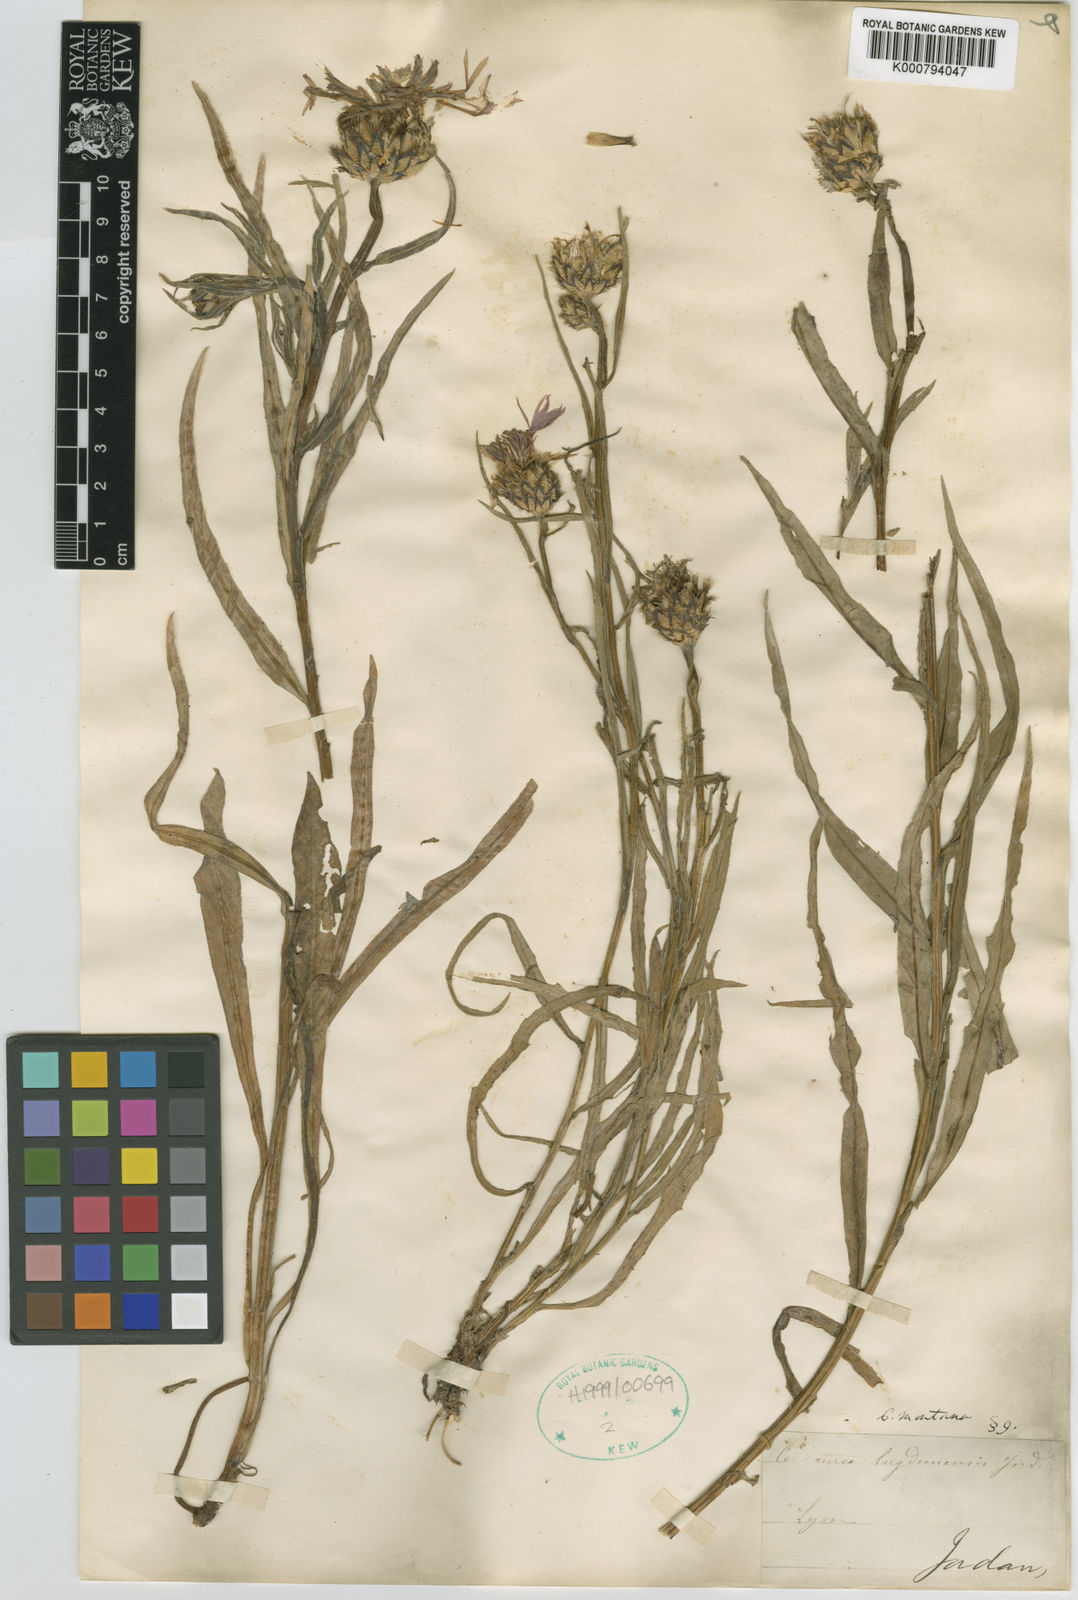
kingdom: Plantae
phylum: Tracheophyta
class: Magnoliopsida
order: Asterales
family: Asteraceae
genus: Centaurea
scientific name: Centaurea triumfettii
